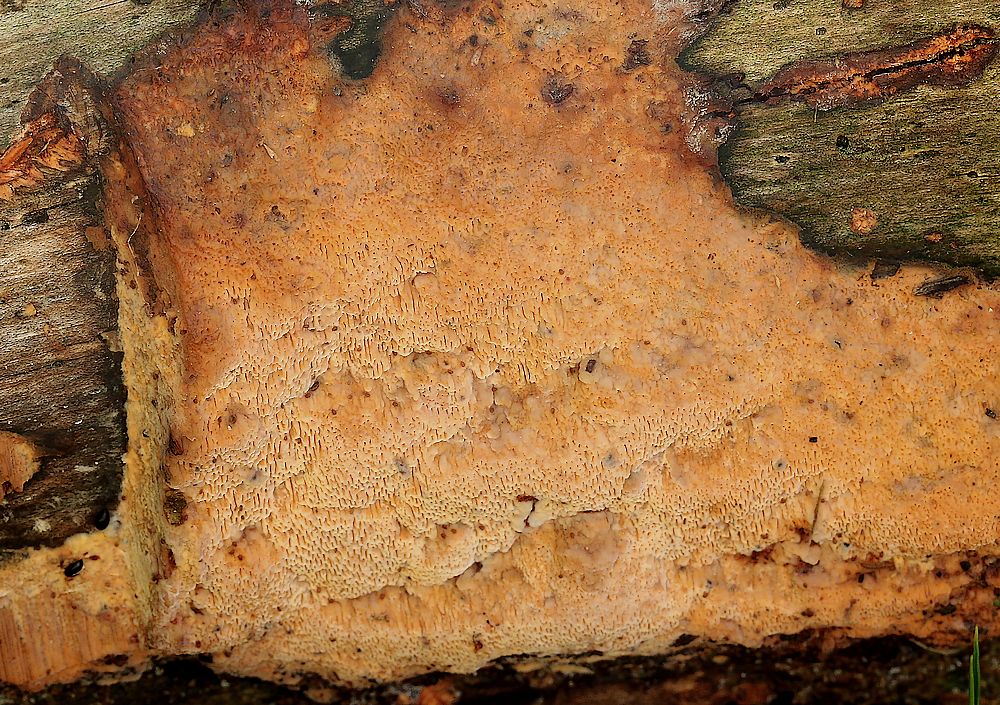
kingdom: Fungi
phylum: Basidiomycota
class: Agaricomycetes
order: Polyporales
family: Polyporaceae
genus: Erastia
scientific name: Erastia aurantiaca
